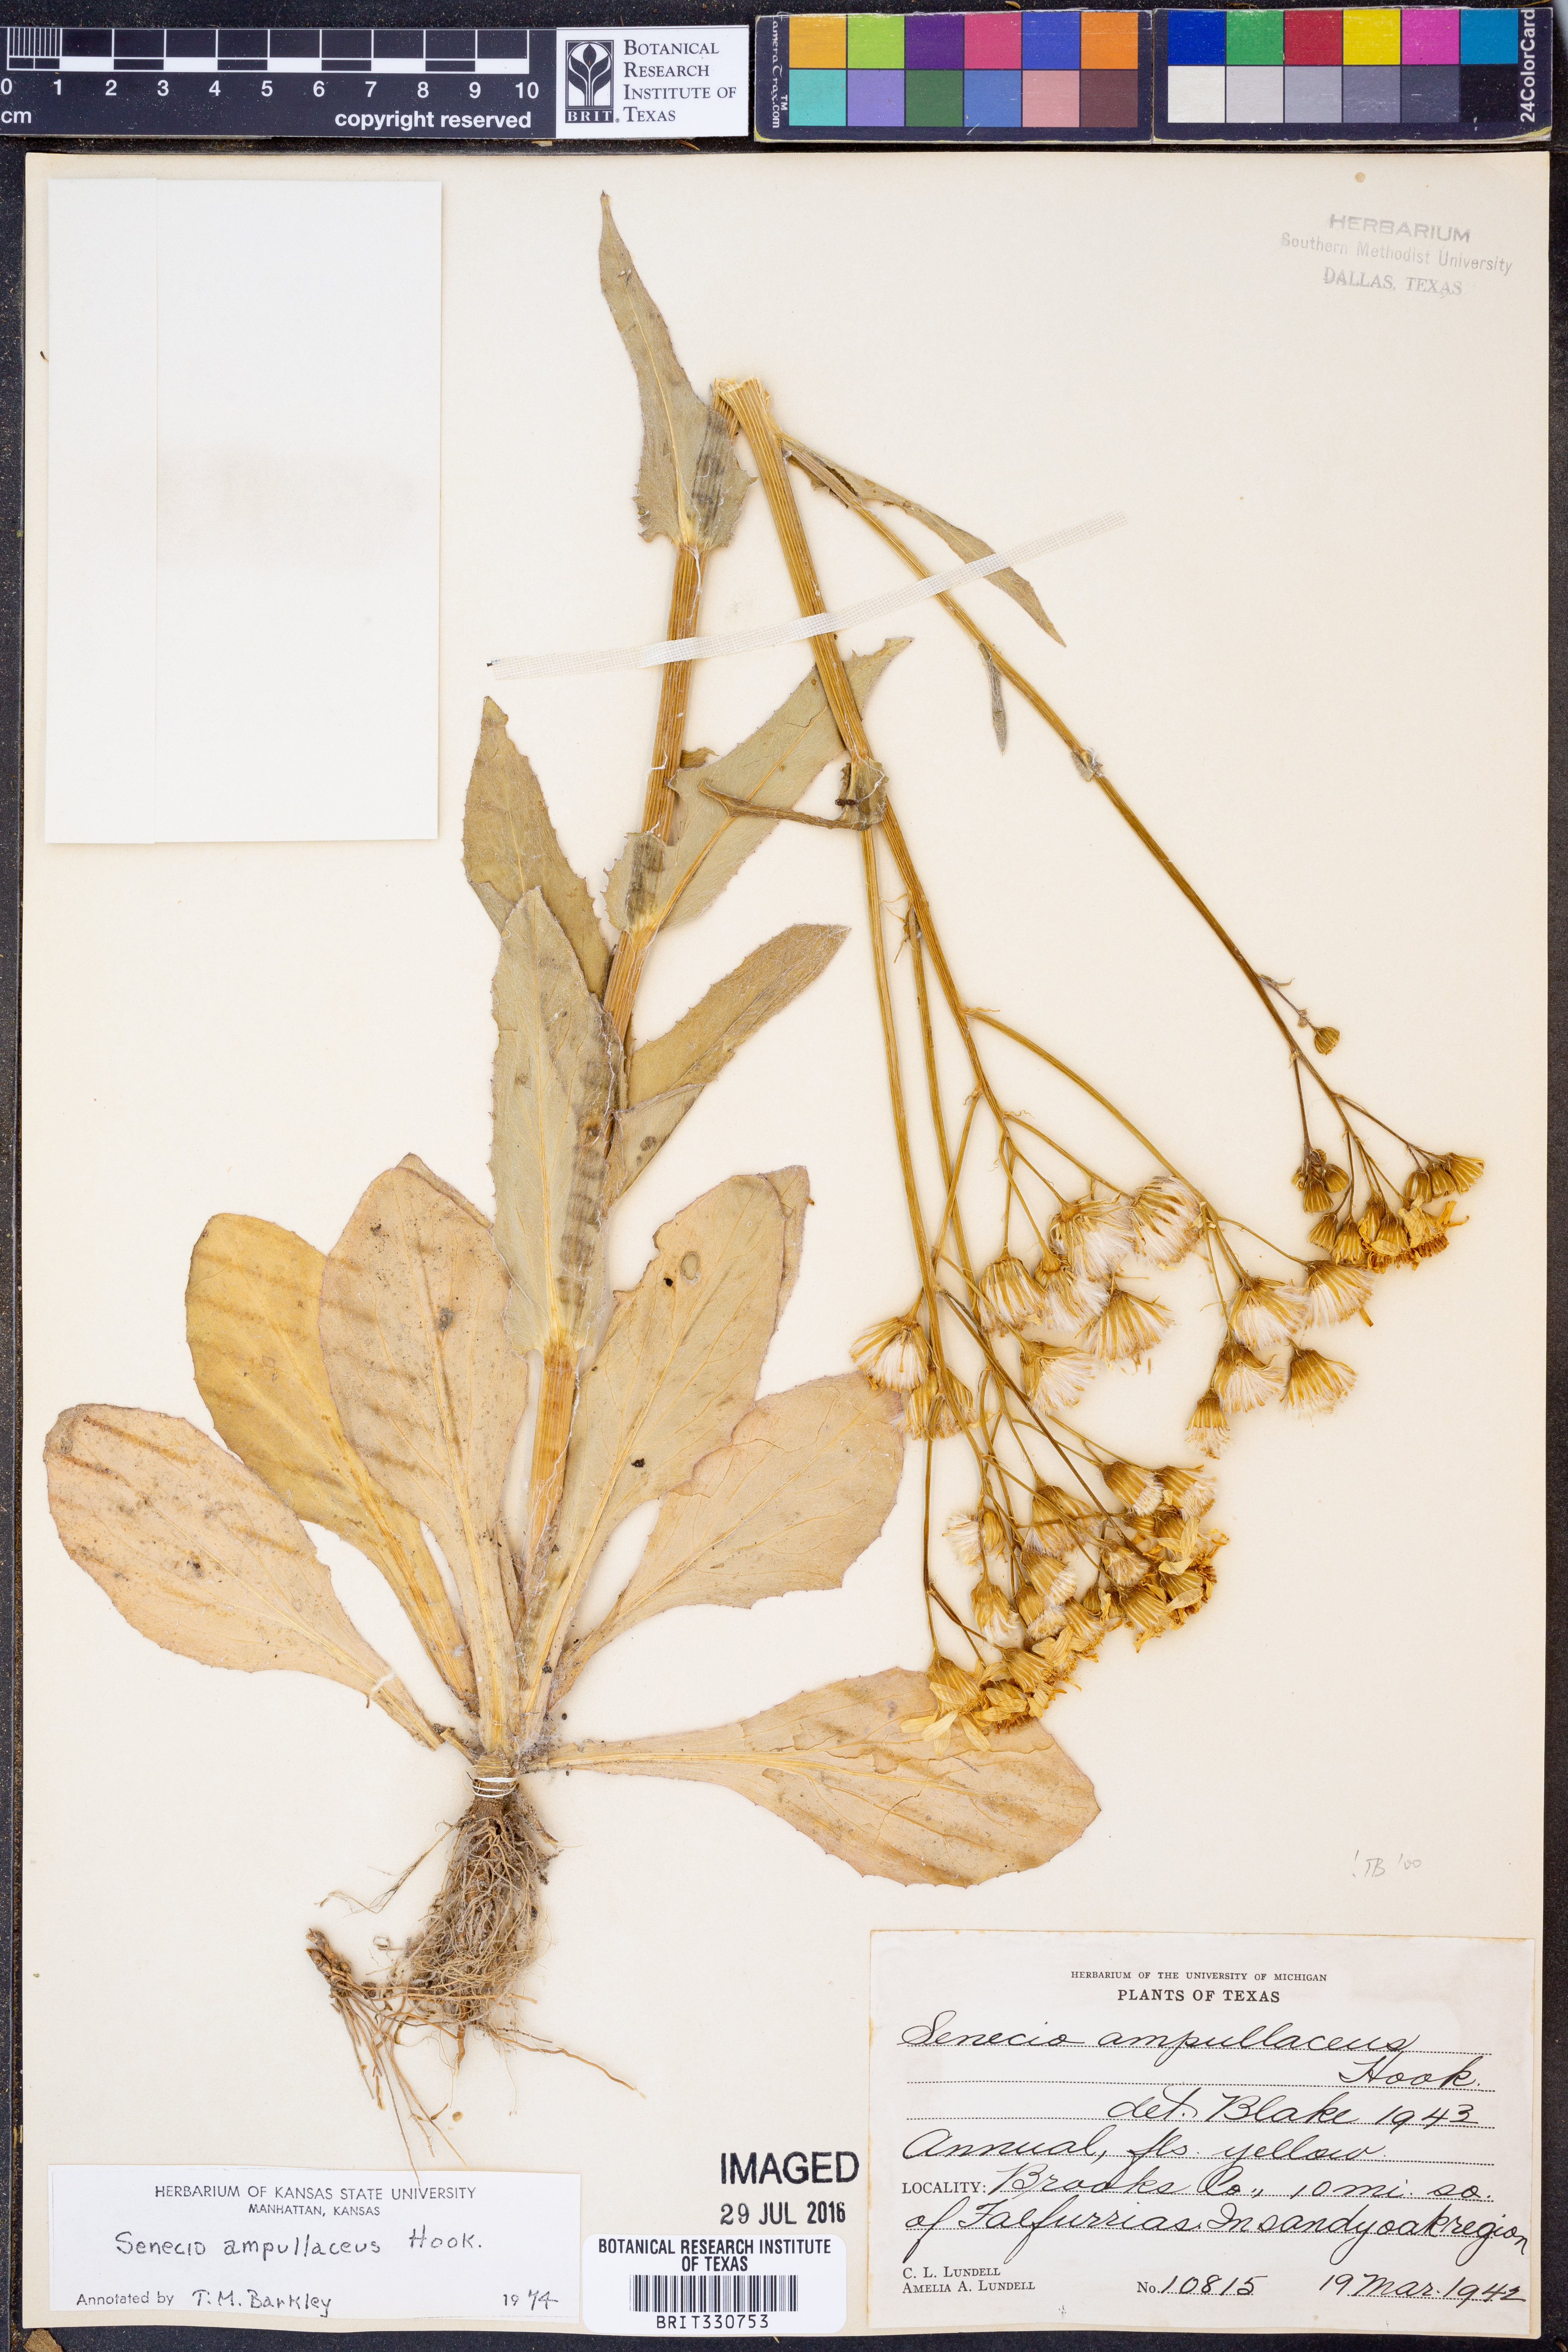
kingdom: Plantae
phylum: Tracheophyta
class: Magnoliopsida
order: Asterales
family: Asteraceae
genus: Senecio
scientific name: Senecio ampullaceus
